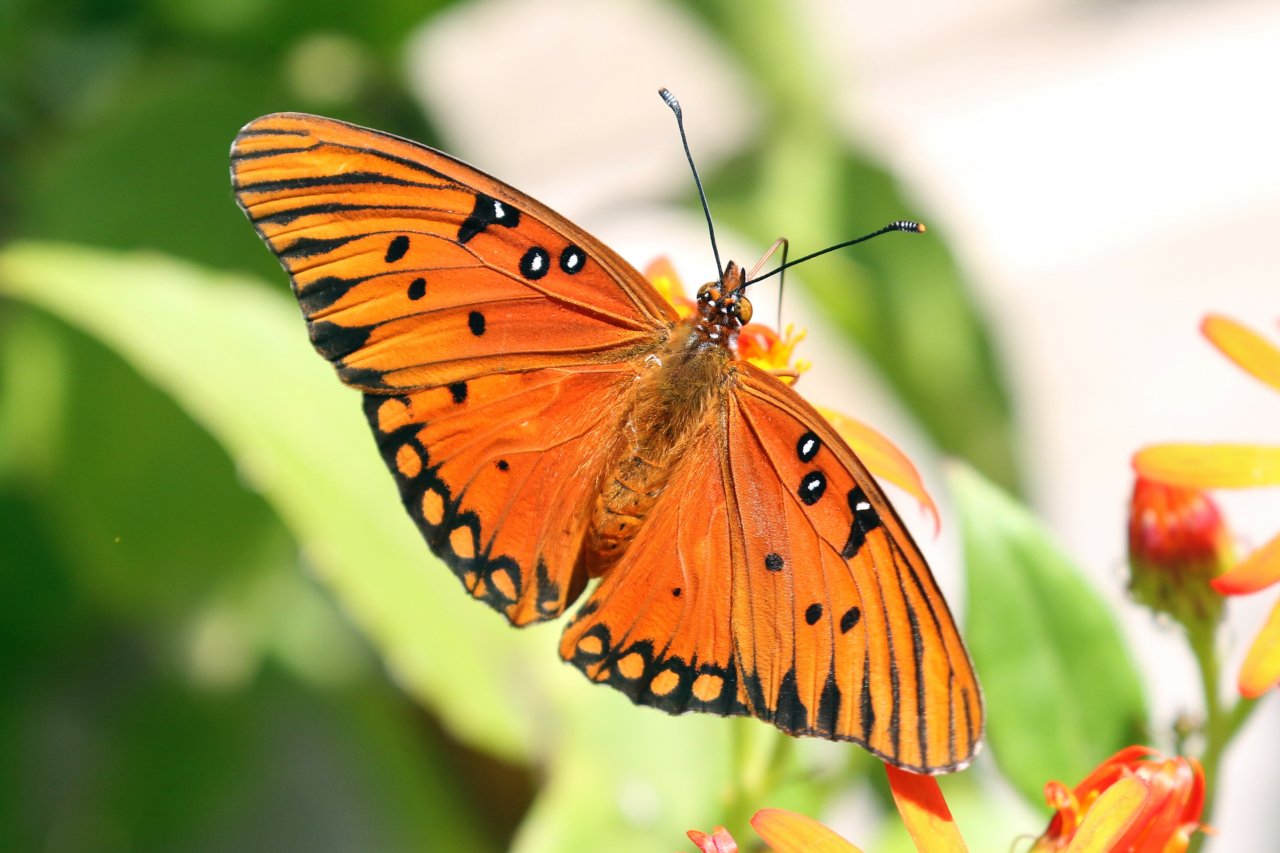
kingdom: Animalia
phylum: Arthropoda
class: Insecta
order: Lepidoptera
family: Nymphalidae
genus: Dione
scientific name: Dione vanillae
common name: Gulf Fritillary
